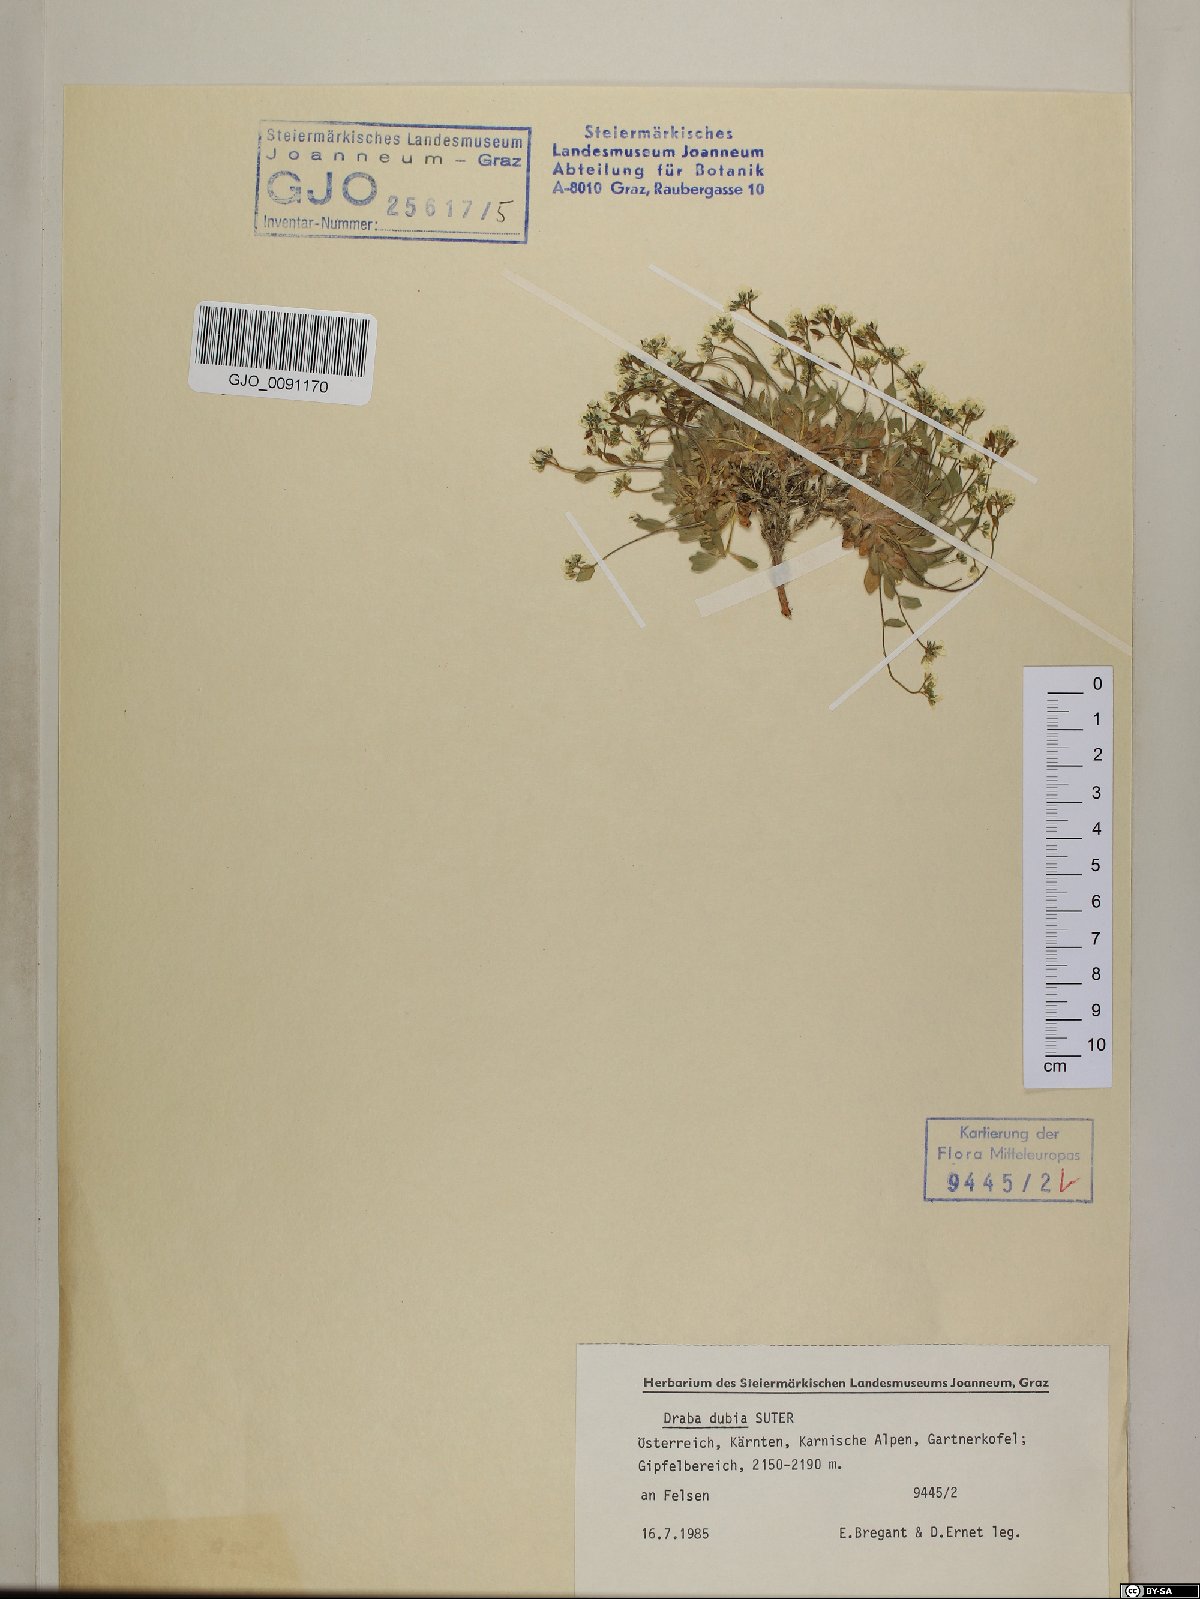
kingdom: Plantae
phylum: Tracheophyta
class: Magnoliopsida
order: Brassicales
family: Brassicaceae
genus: Draba
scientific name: Draba dubia
